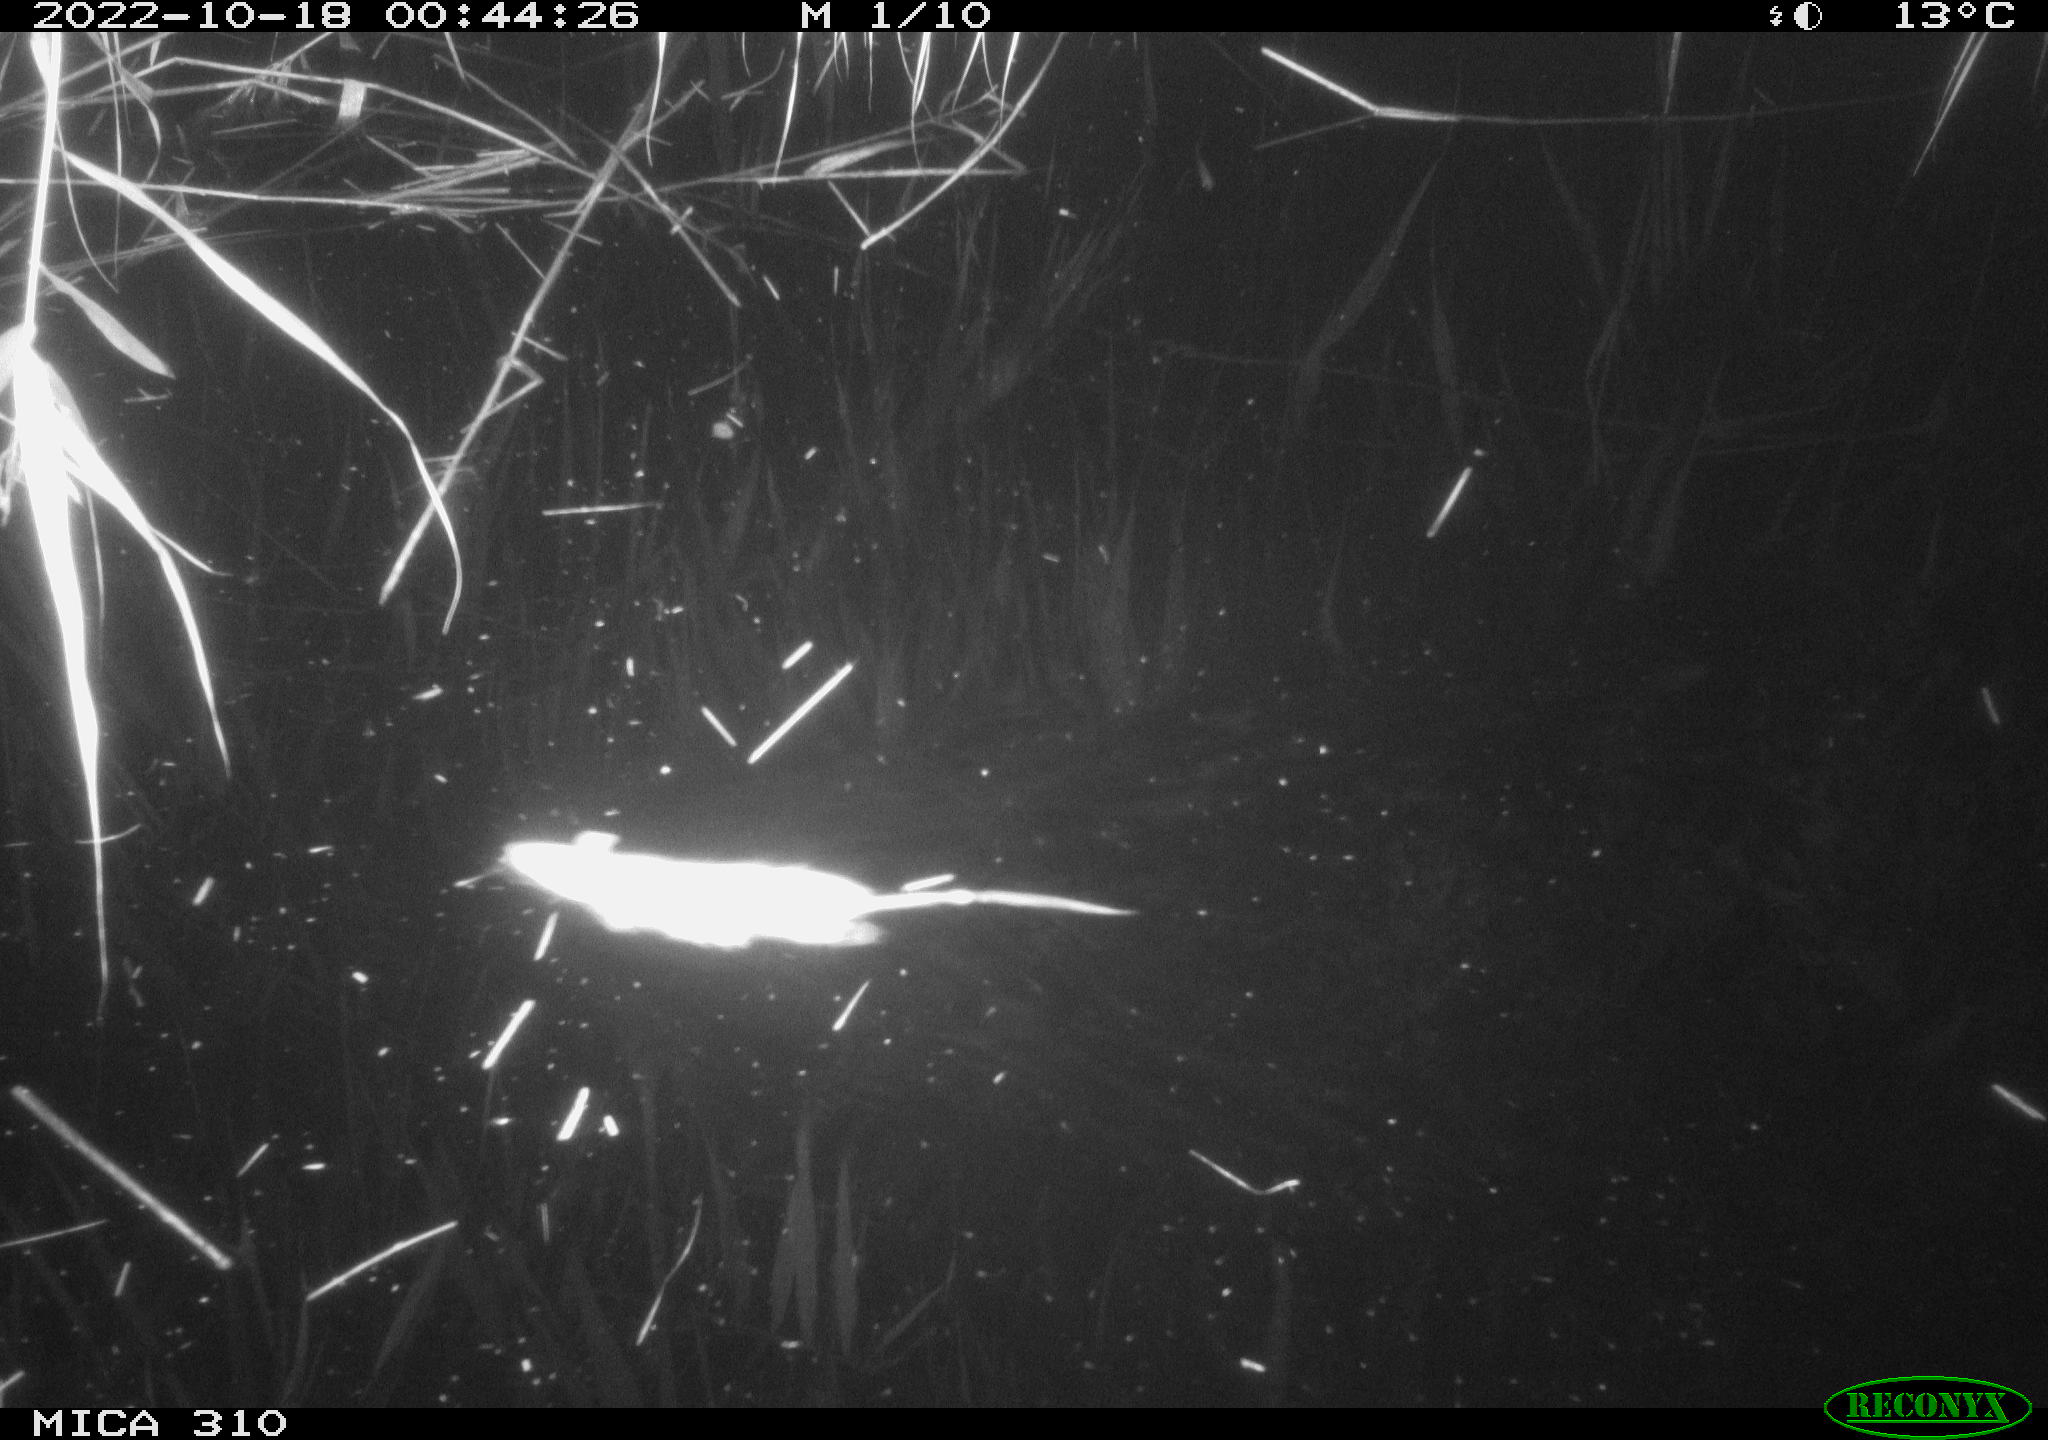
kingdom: Animalia
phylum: Chordata
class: Mammalia
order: Rodentia
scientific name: Rodentia
